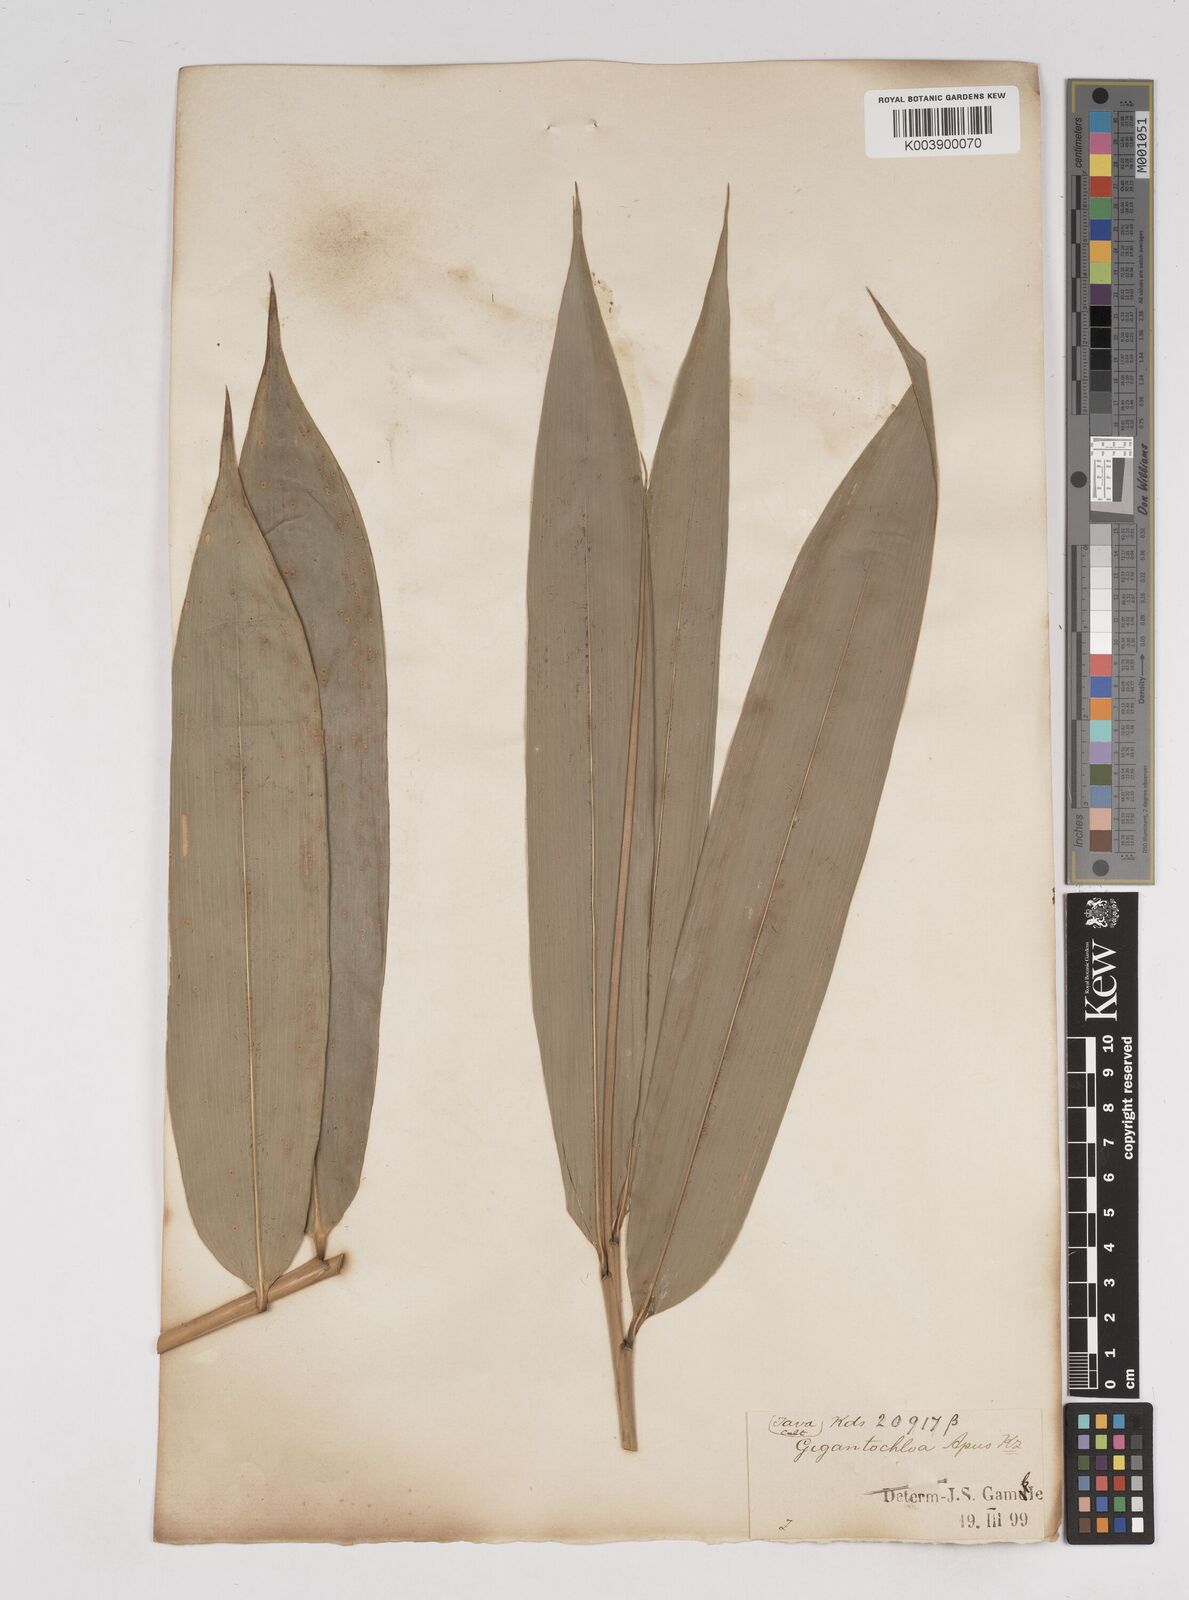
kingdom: Plantae
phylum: Tracheophyta
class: Liliopsida
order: Poales
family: Poaceae
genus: Gigantochloa
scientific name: Gigantochloa apus
